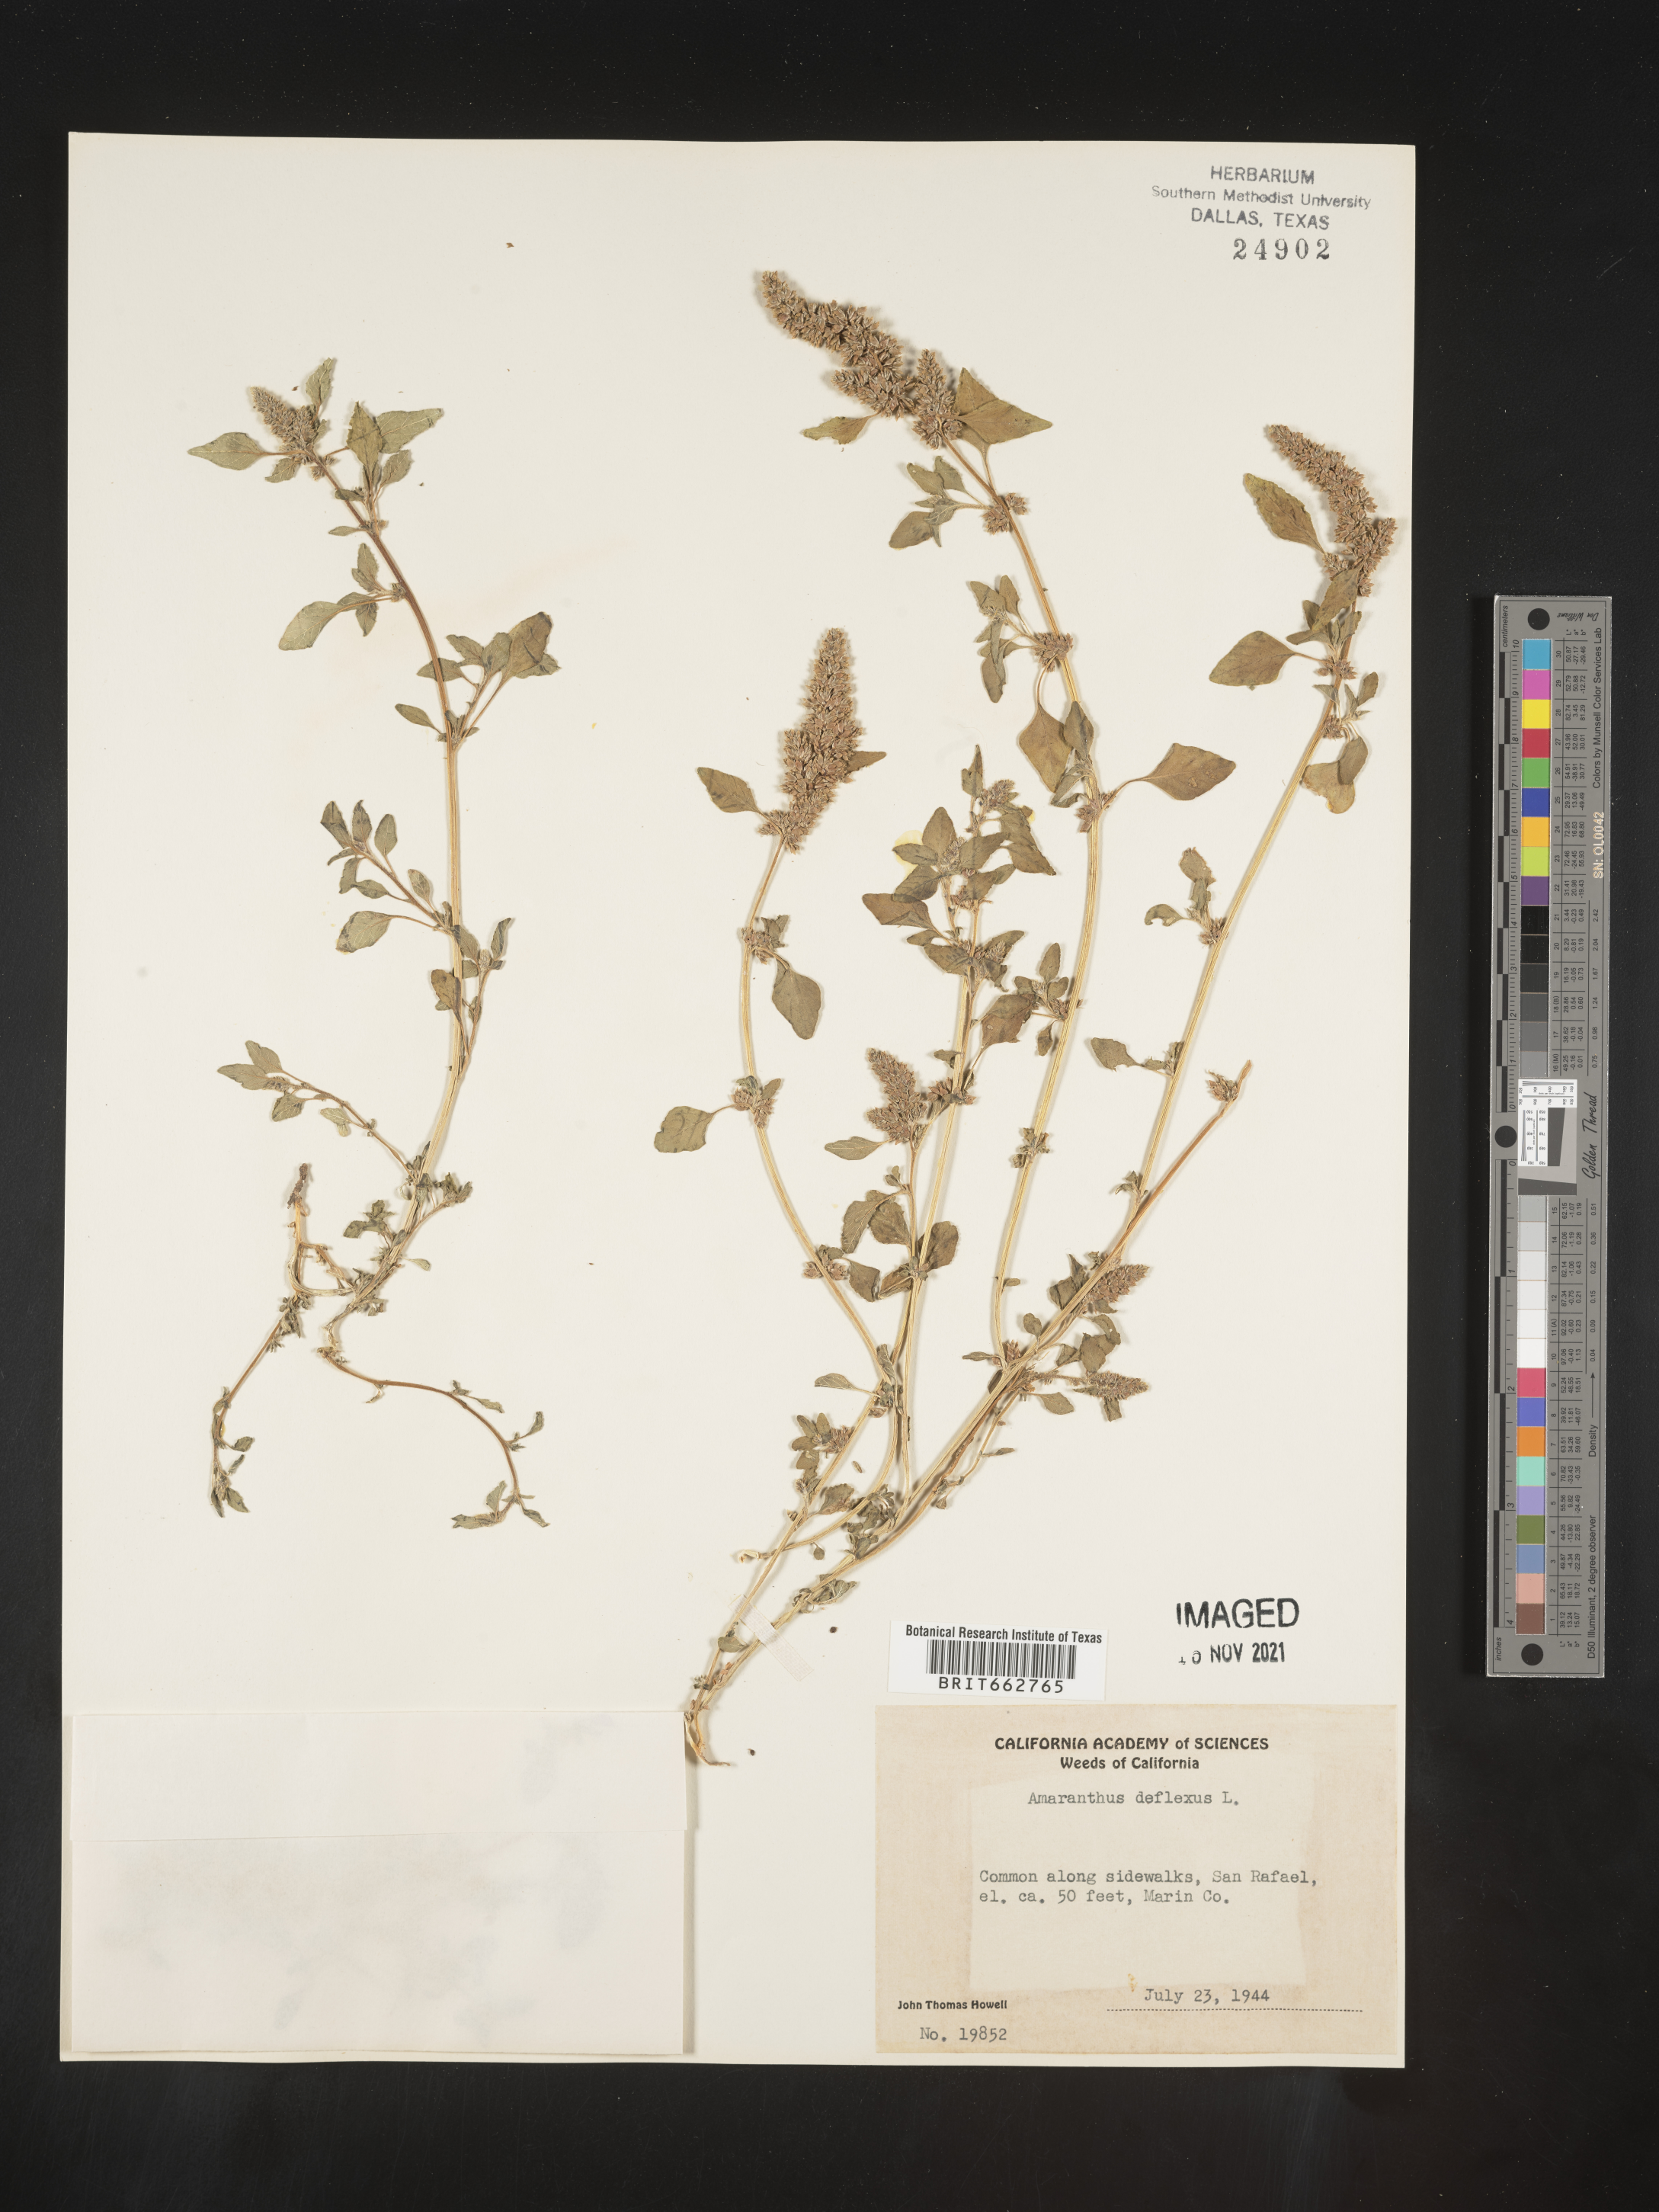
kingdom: Plantae
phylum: Tracheophyta
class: Magnoliopsida
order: Caryophyllales
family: Amaranthaceae
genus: Amaranthus
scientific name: Amaranthus
